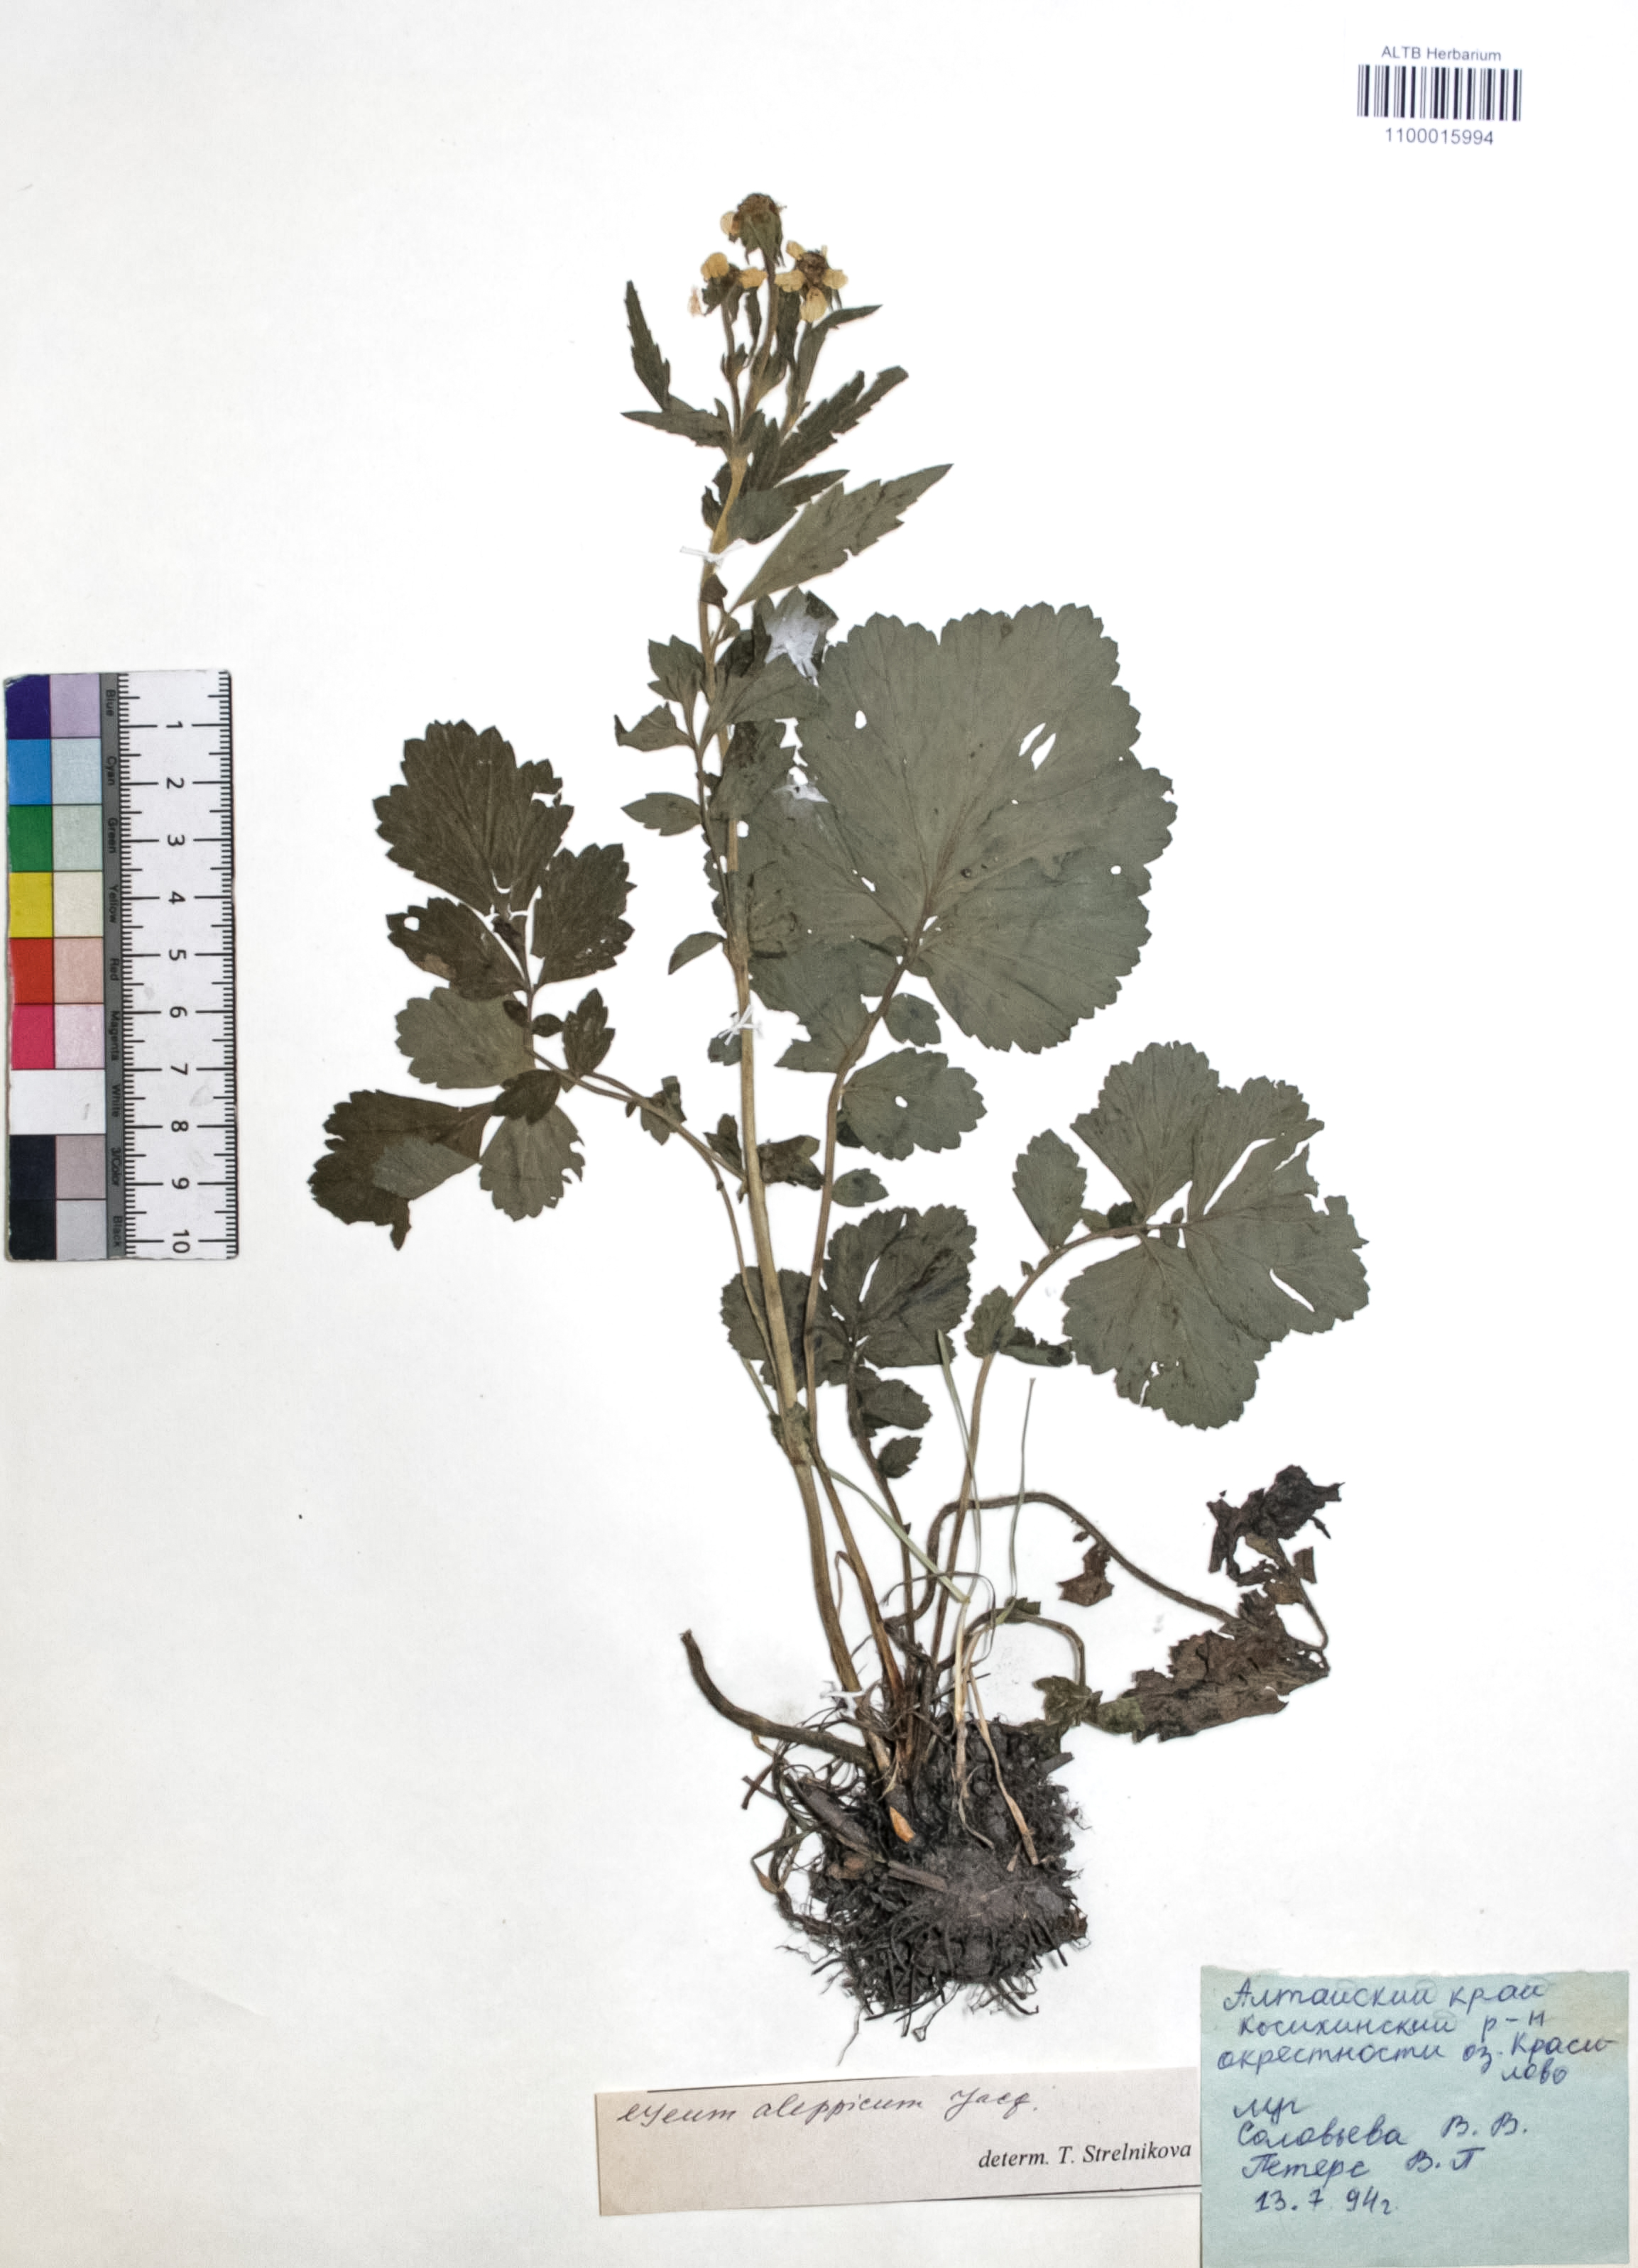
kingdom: Plantae
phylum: Tracheophyta
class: Magnoliopsida
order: Rosales
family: Rosaceae
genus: Geum
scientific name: Geum aleppicum
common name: Yellow avens
